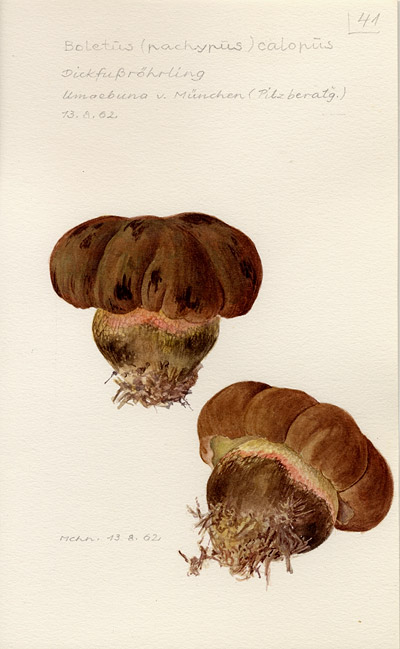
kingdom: Fungi
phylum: Basidiomycota
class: Agaricomycetes
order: Boletales
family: Boletaceae
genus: Caloboletus
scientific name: Caloboletus calopus
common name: Bitter beech bolete
